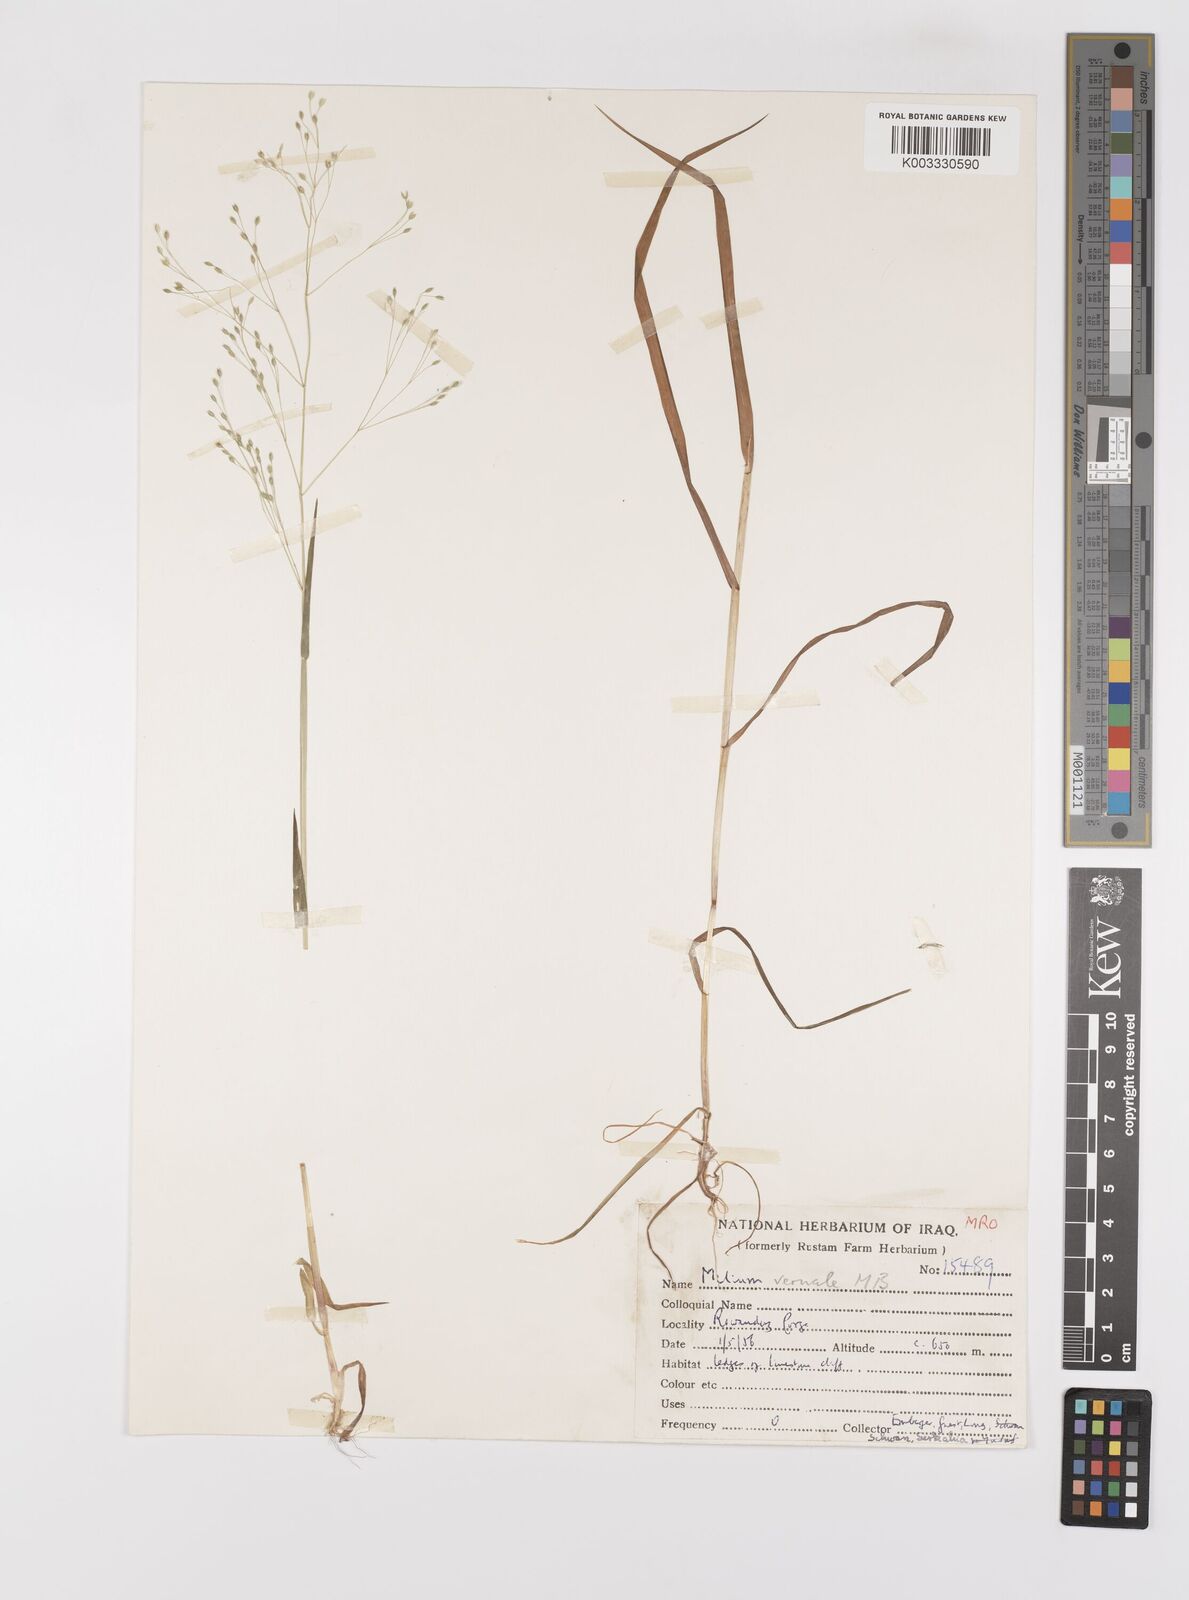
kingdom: Plantae
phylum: Tracheophyta
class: Liliopsida
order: Poales
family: Poaceae
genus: Milium
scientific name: Milium pedicellare
